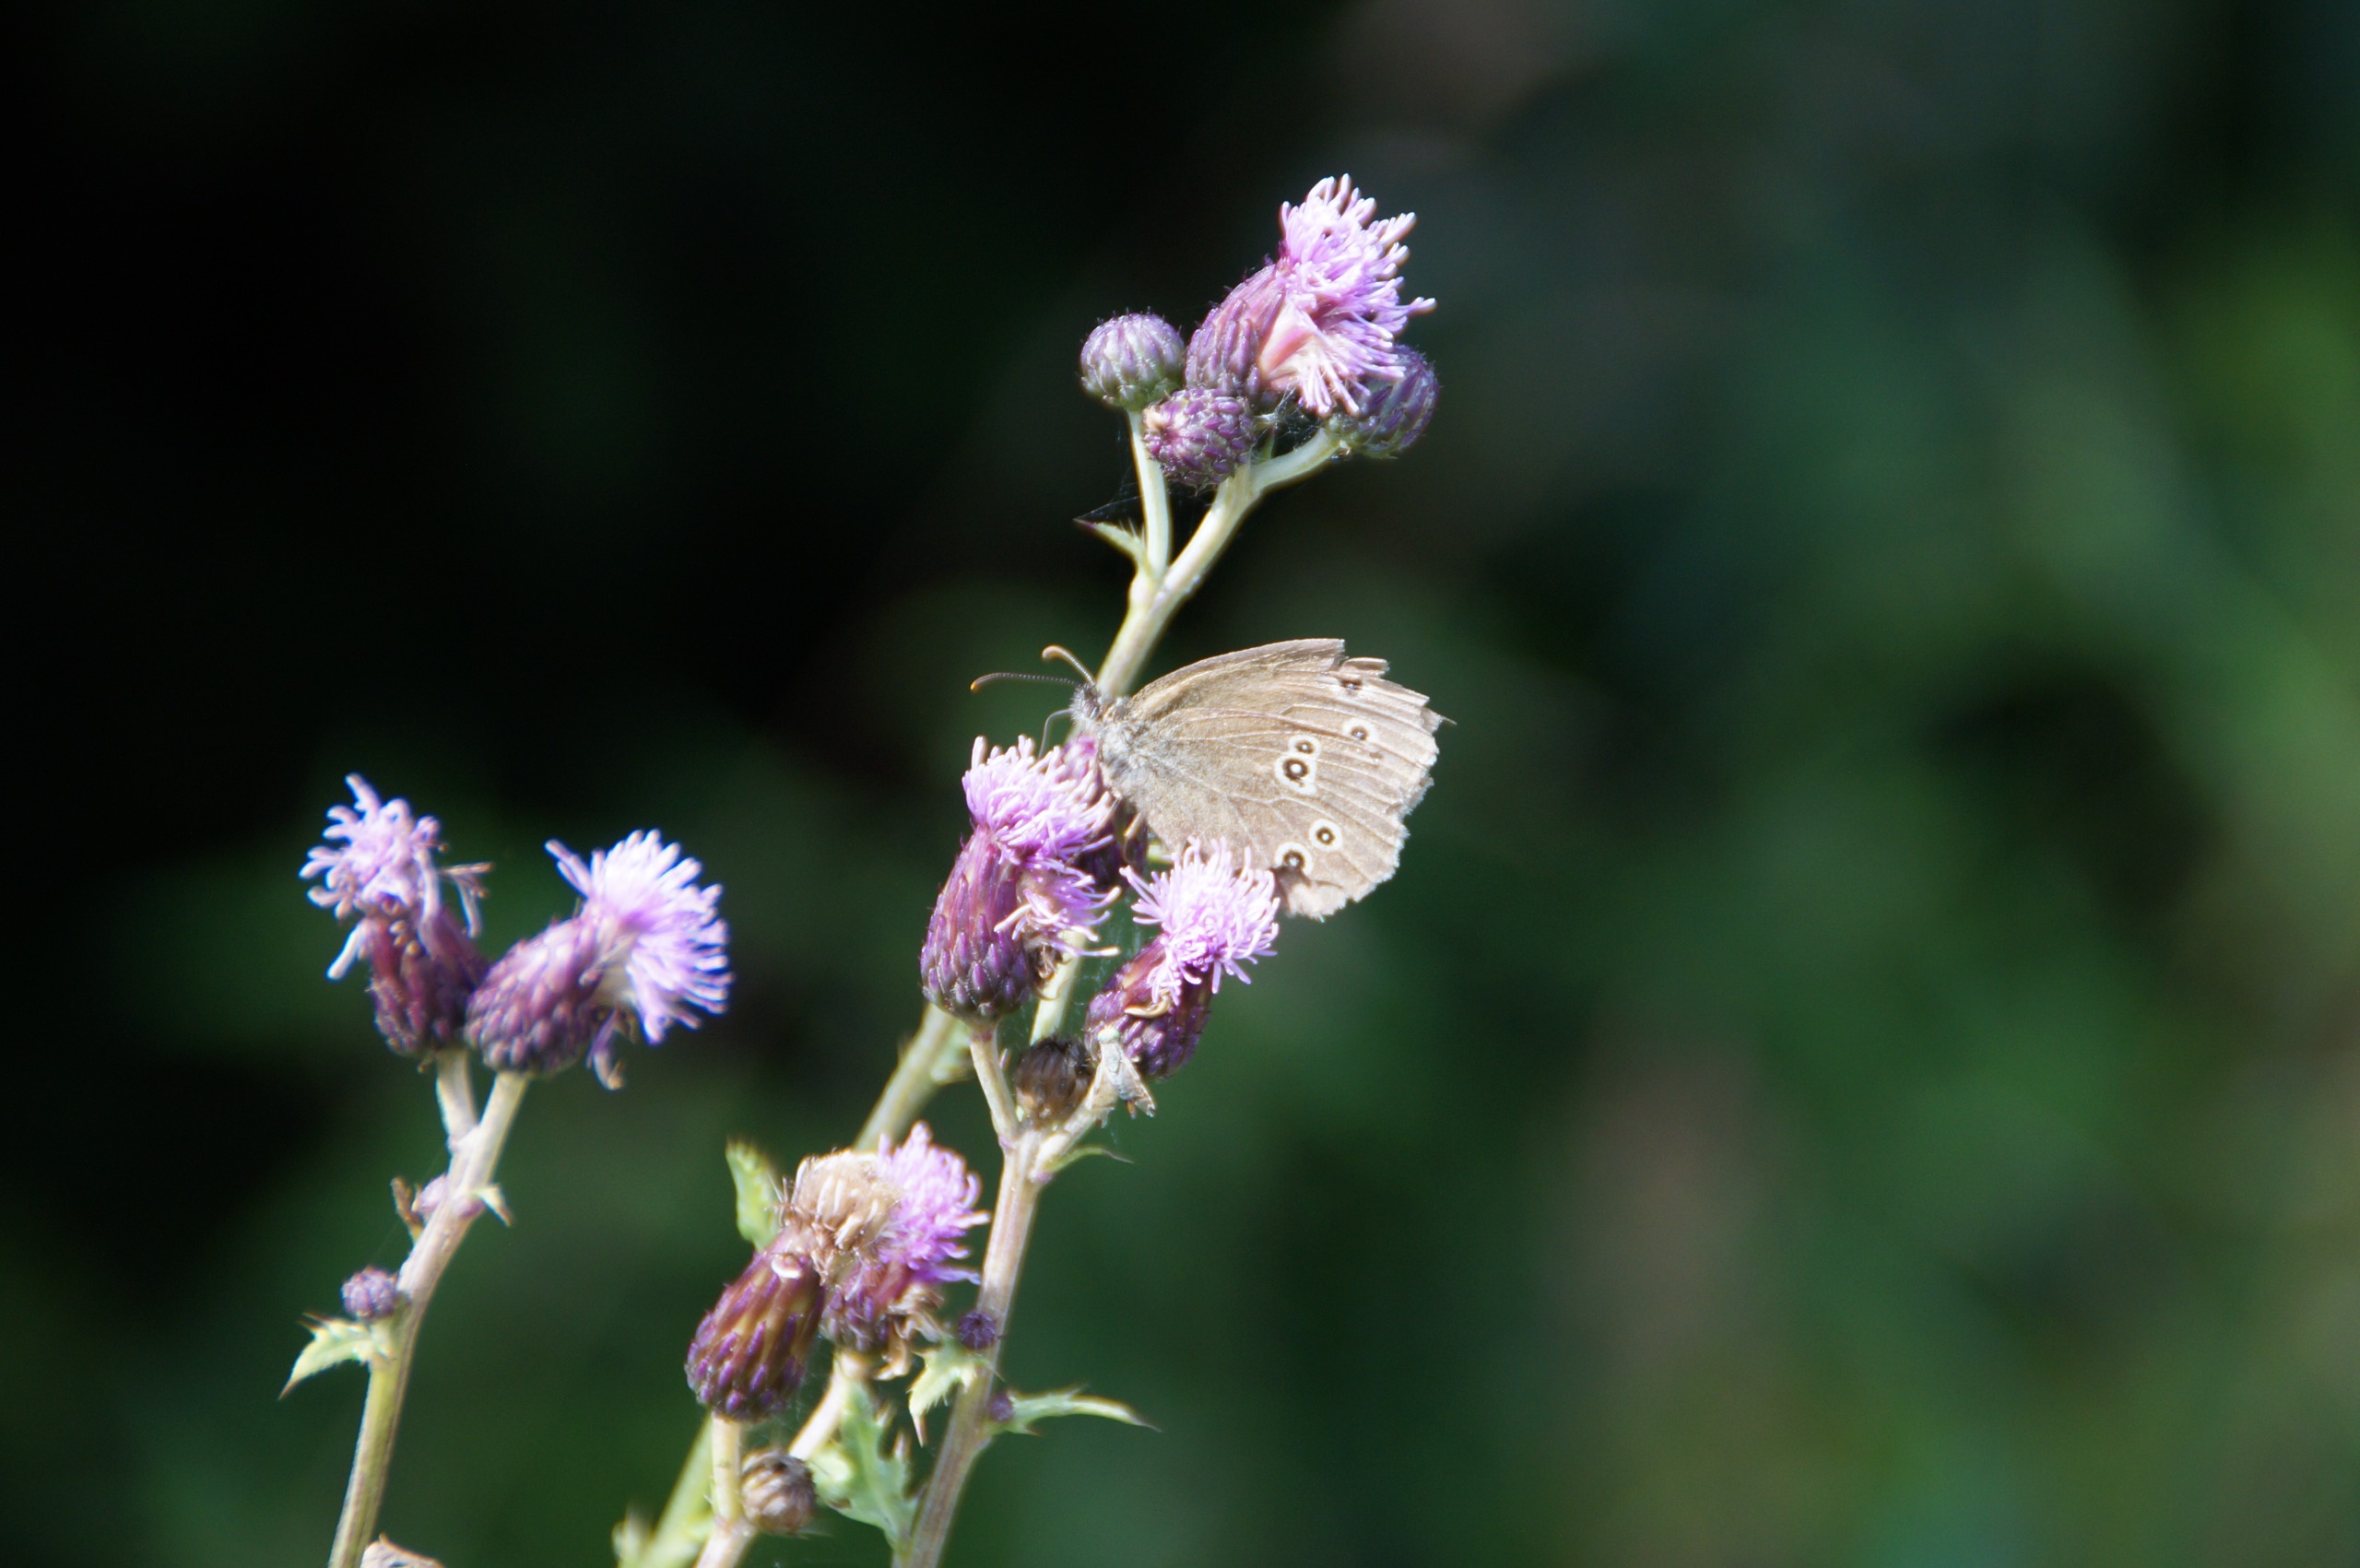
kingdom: Animalia
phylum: Arthropoda
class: Insecta
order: Lepidoptera
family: Nymphalidae
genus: Aphantopus
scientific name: Aphantopus hyperantus
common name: Engrandøje
